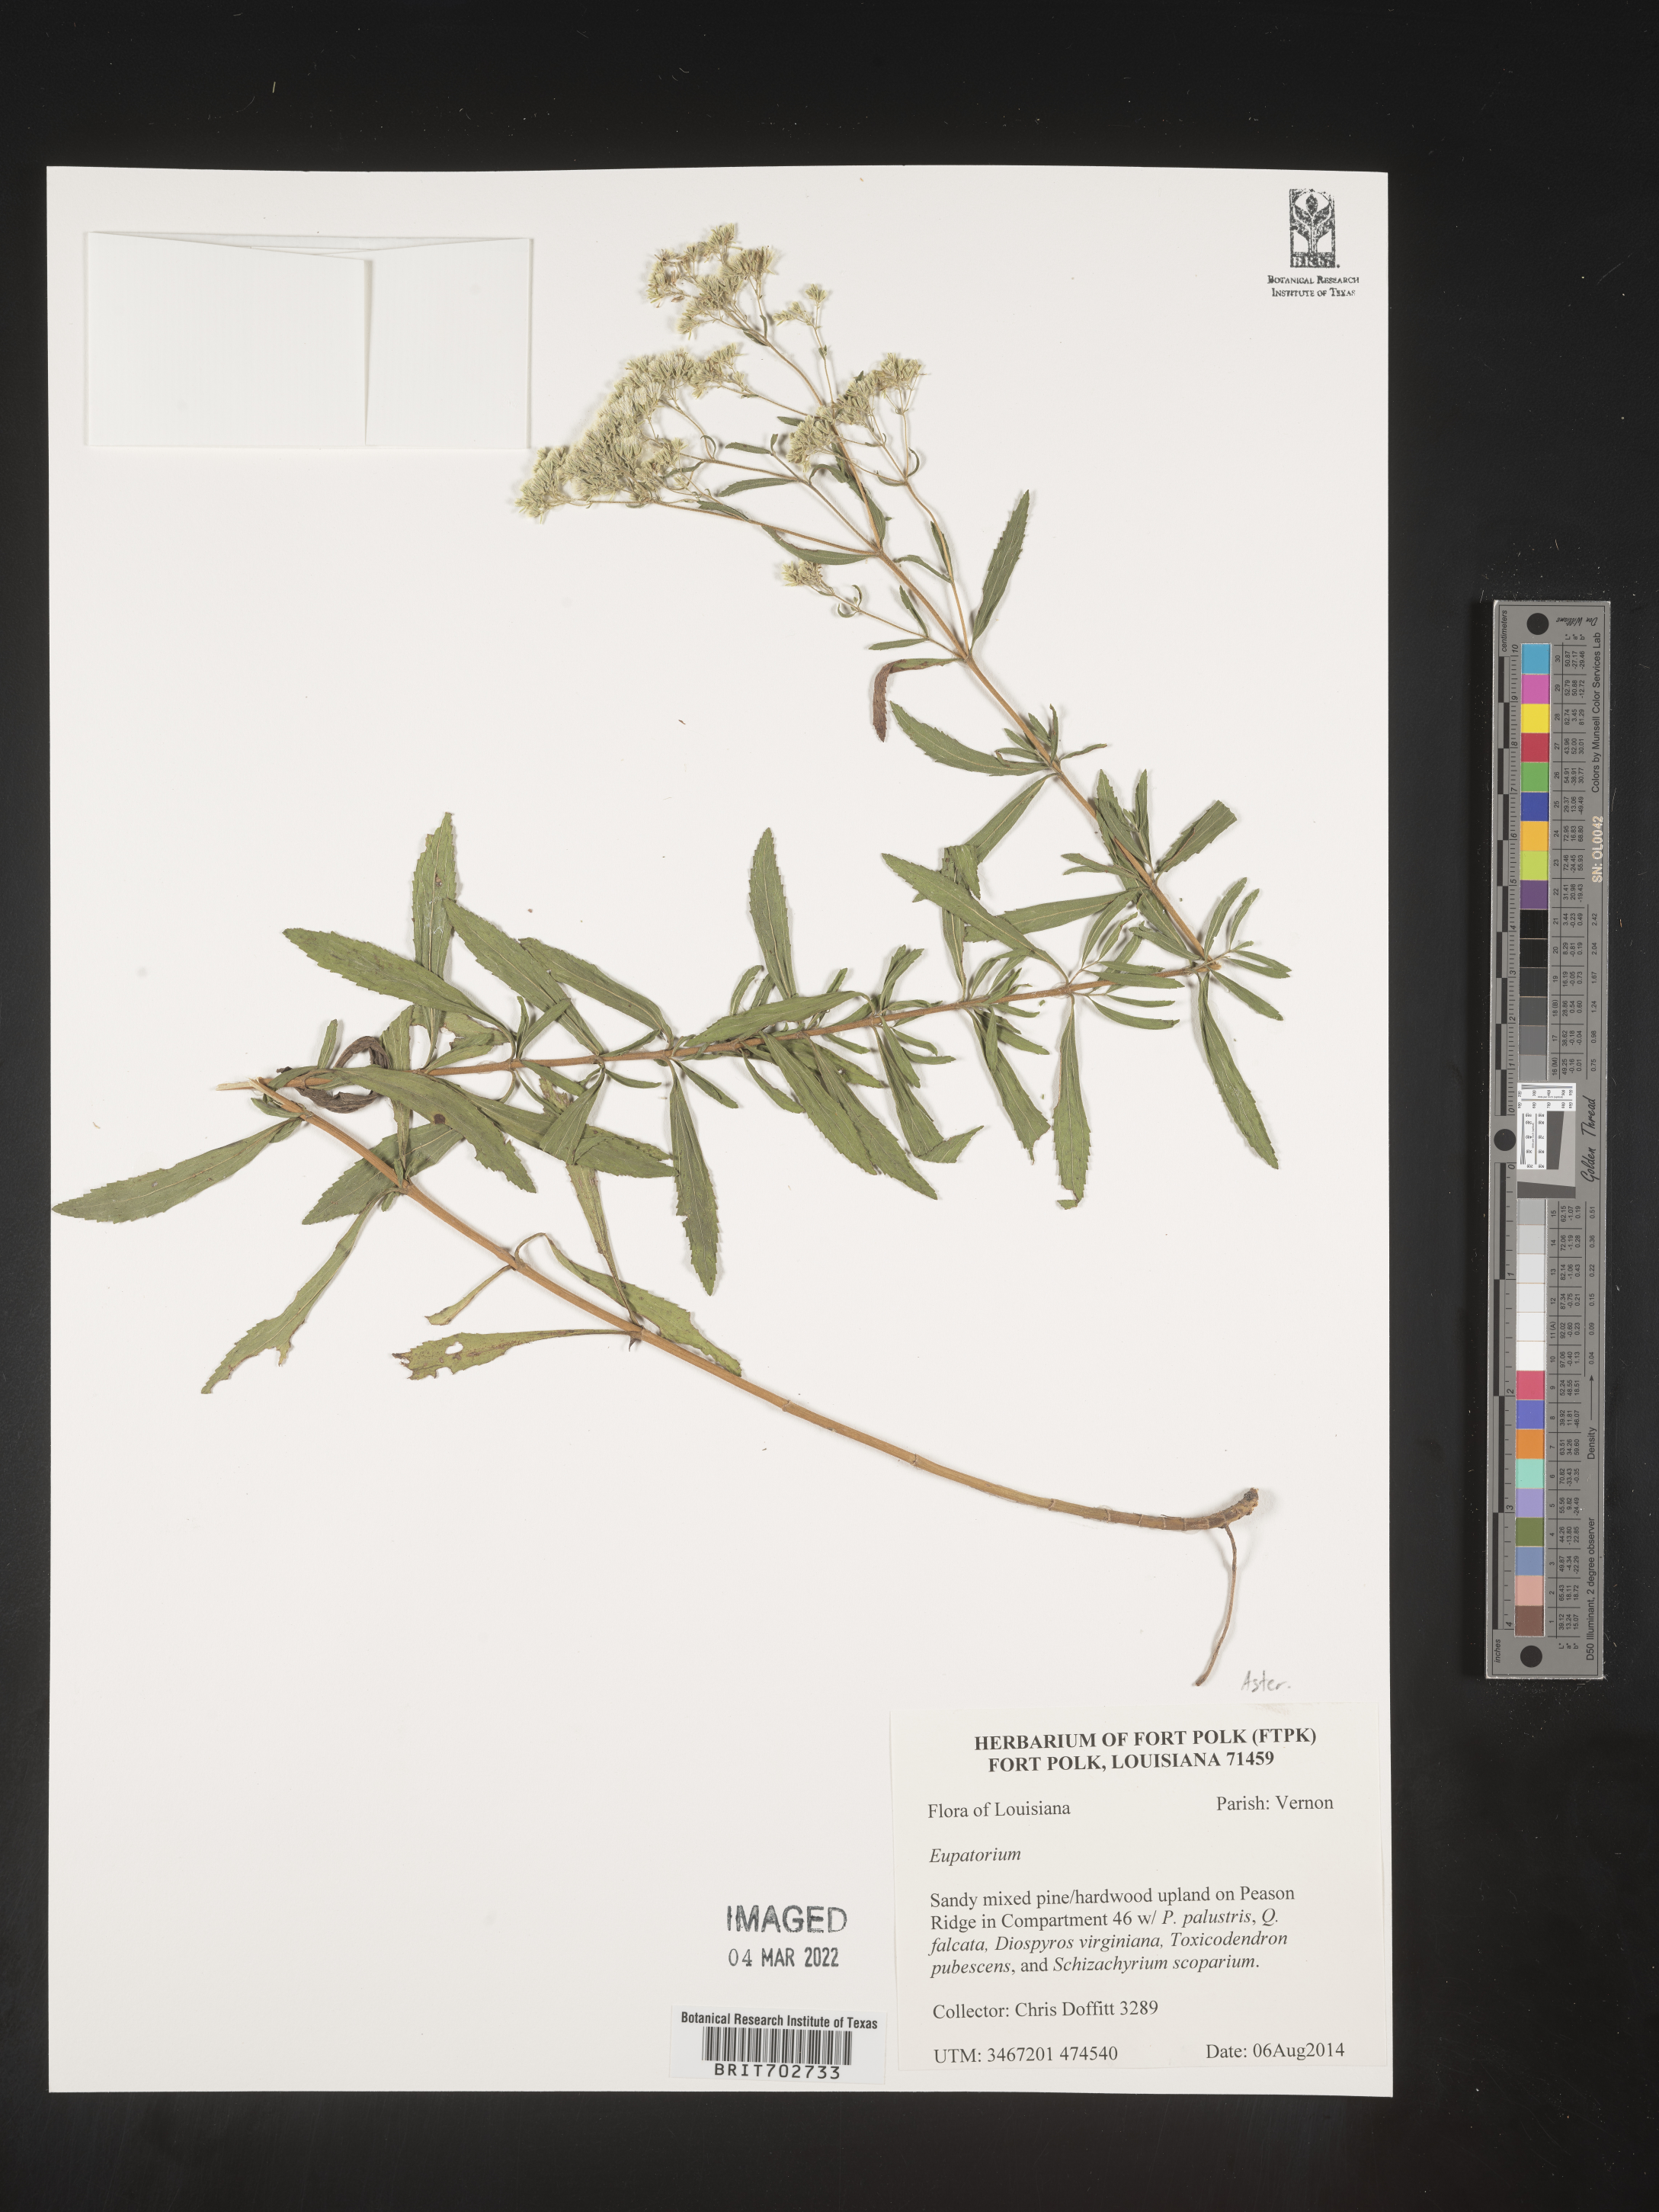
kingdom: Plantae
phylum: Tracheophyta
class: Magnoliopsida
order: Asterales
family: Asteraceae
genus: Eupatorium
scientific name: Eupatorium
